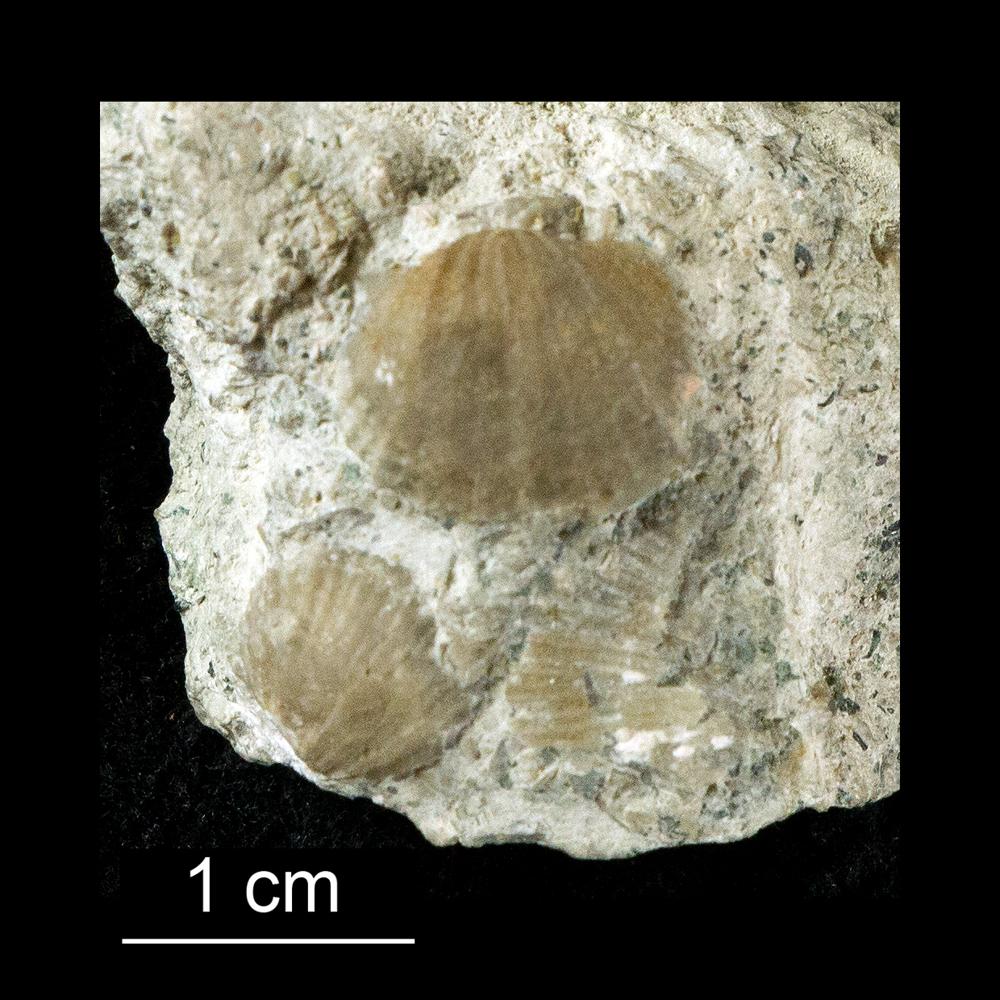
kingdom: Animalia
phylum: Brachiopoda
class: Rhynchonellata
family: Productorthidae
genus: Productorthis
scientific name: Productorthis Productus obtusus
